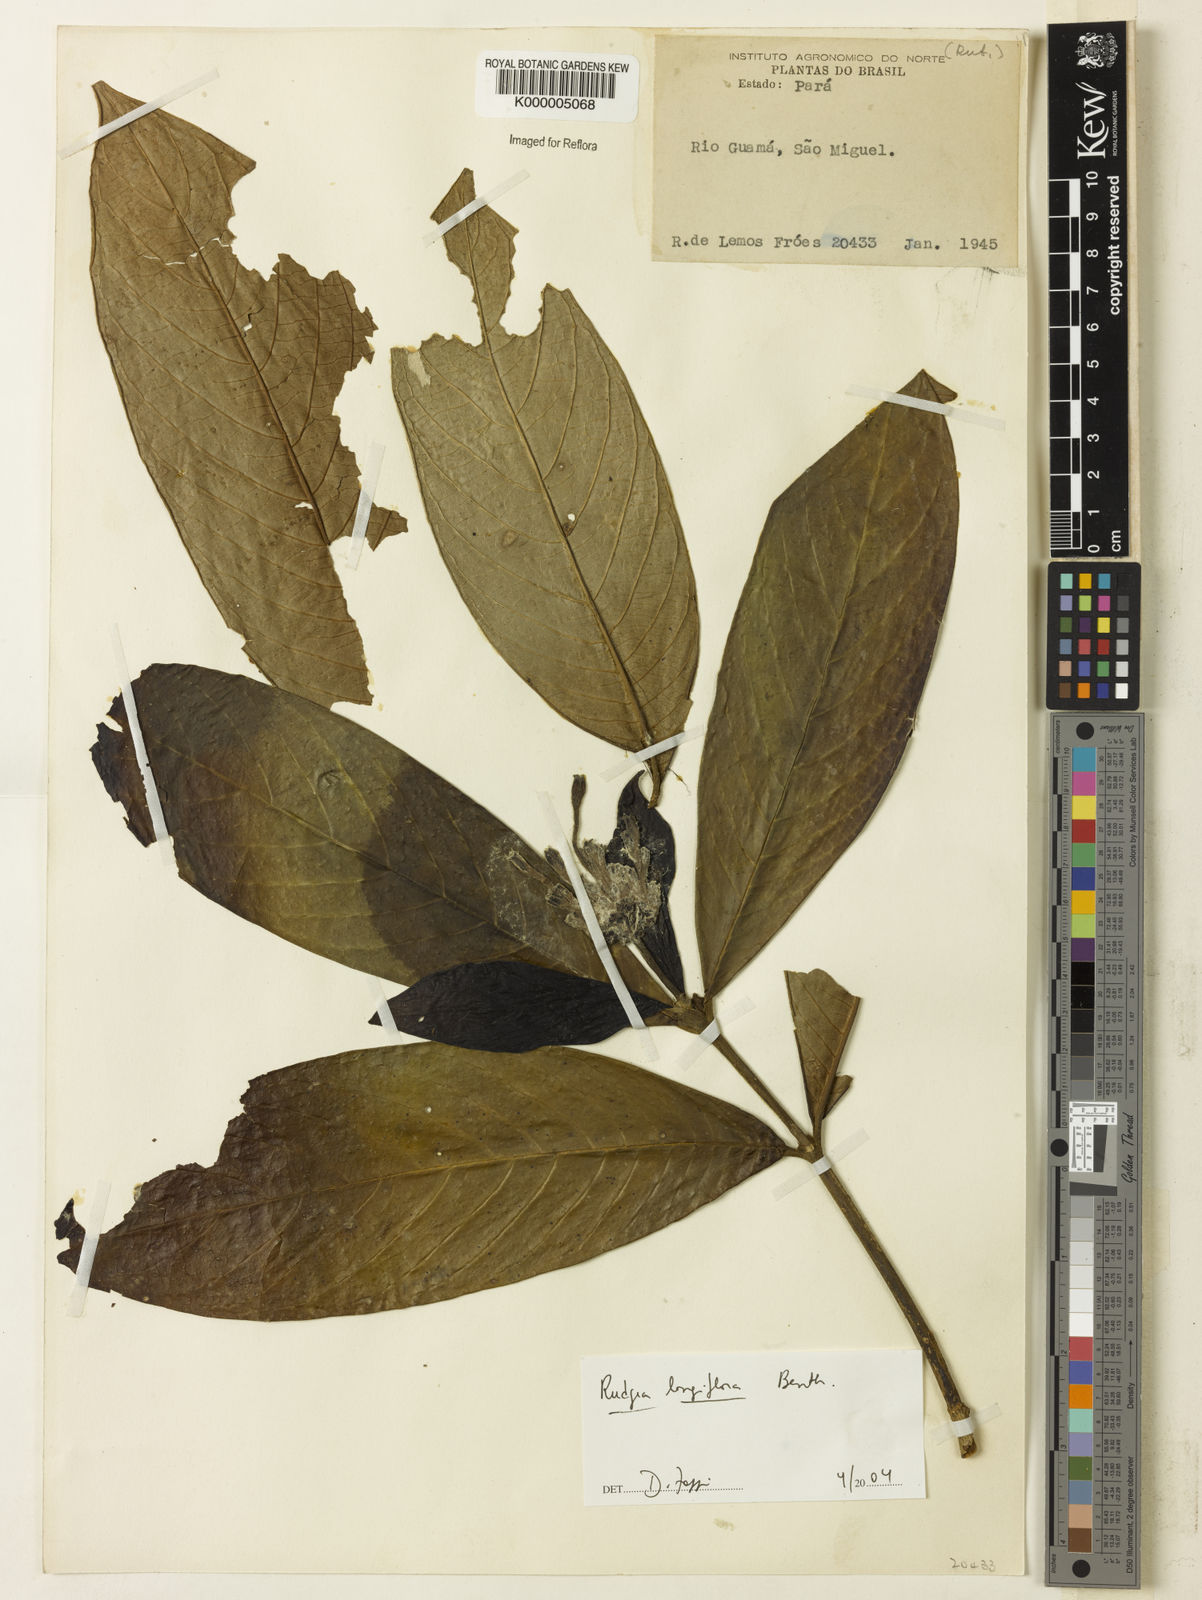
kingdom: Plantae
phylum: Tracheophyta
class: Magnoliopsida
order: Gentianales
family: Rubiaceae
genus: Rudgea
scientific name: Rudgea longiflora
